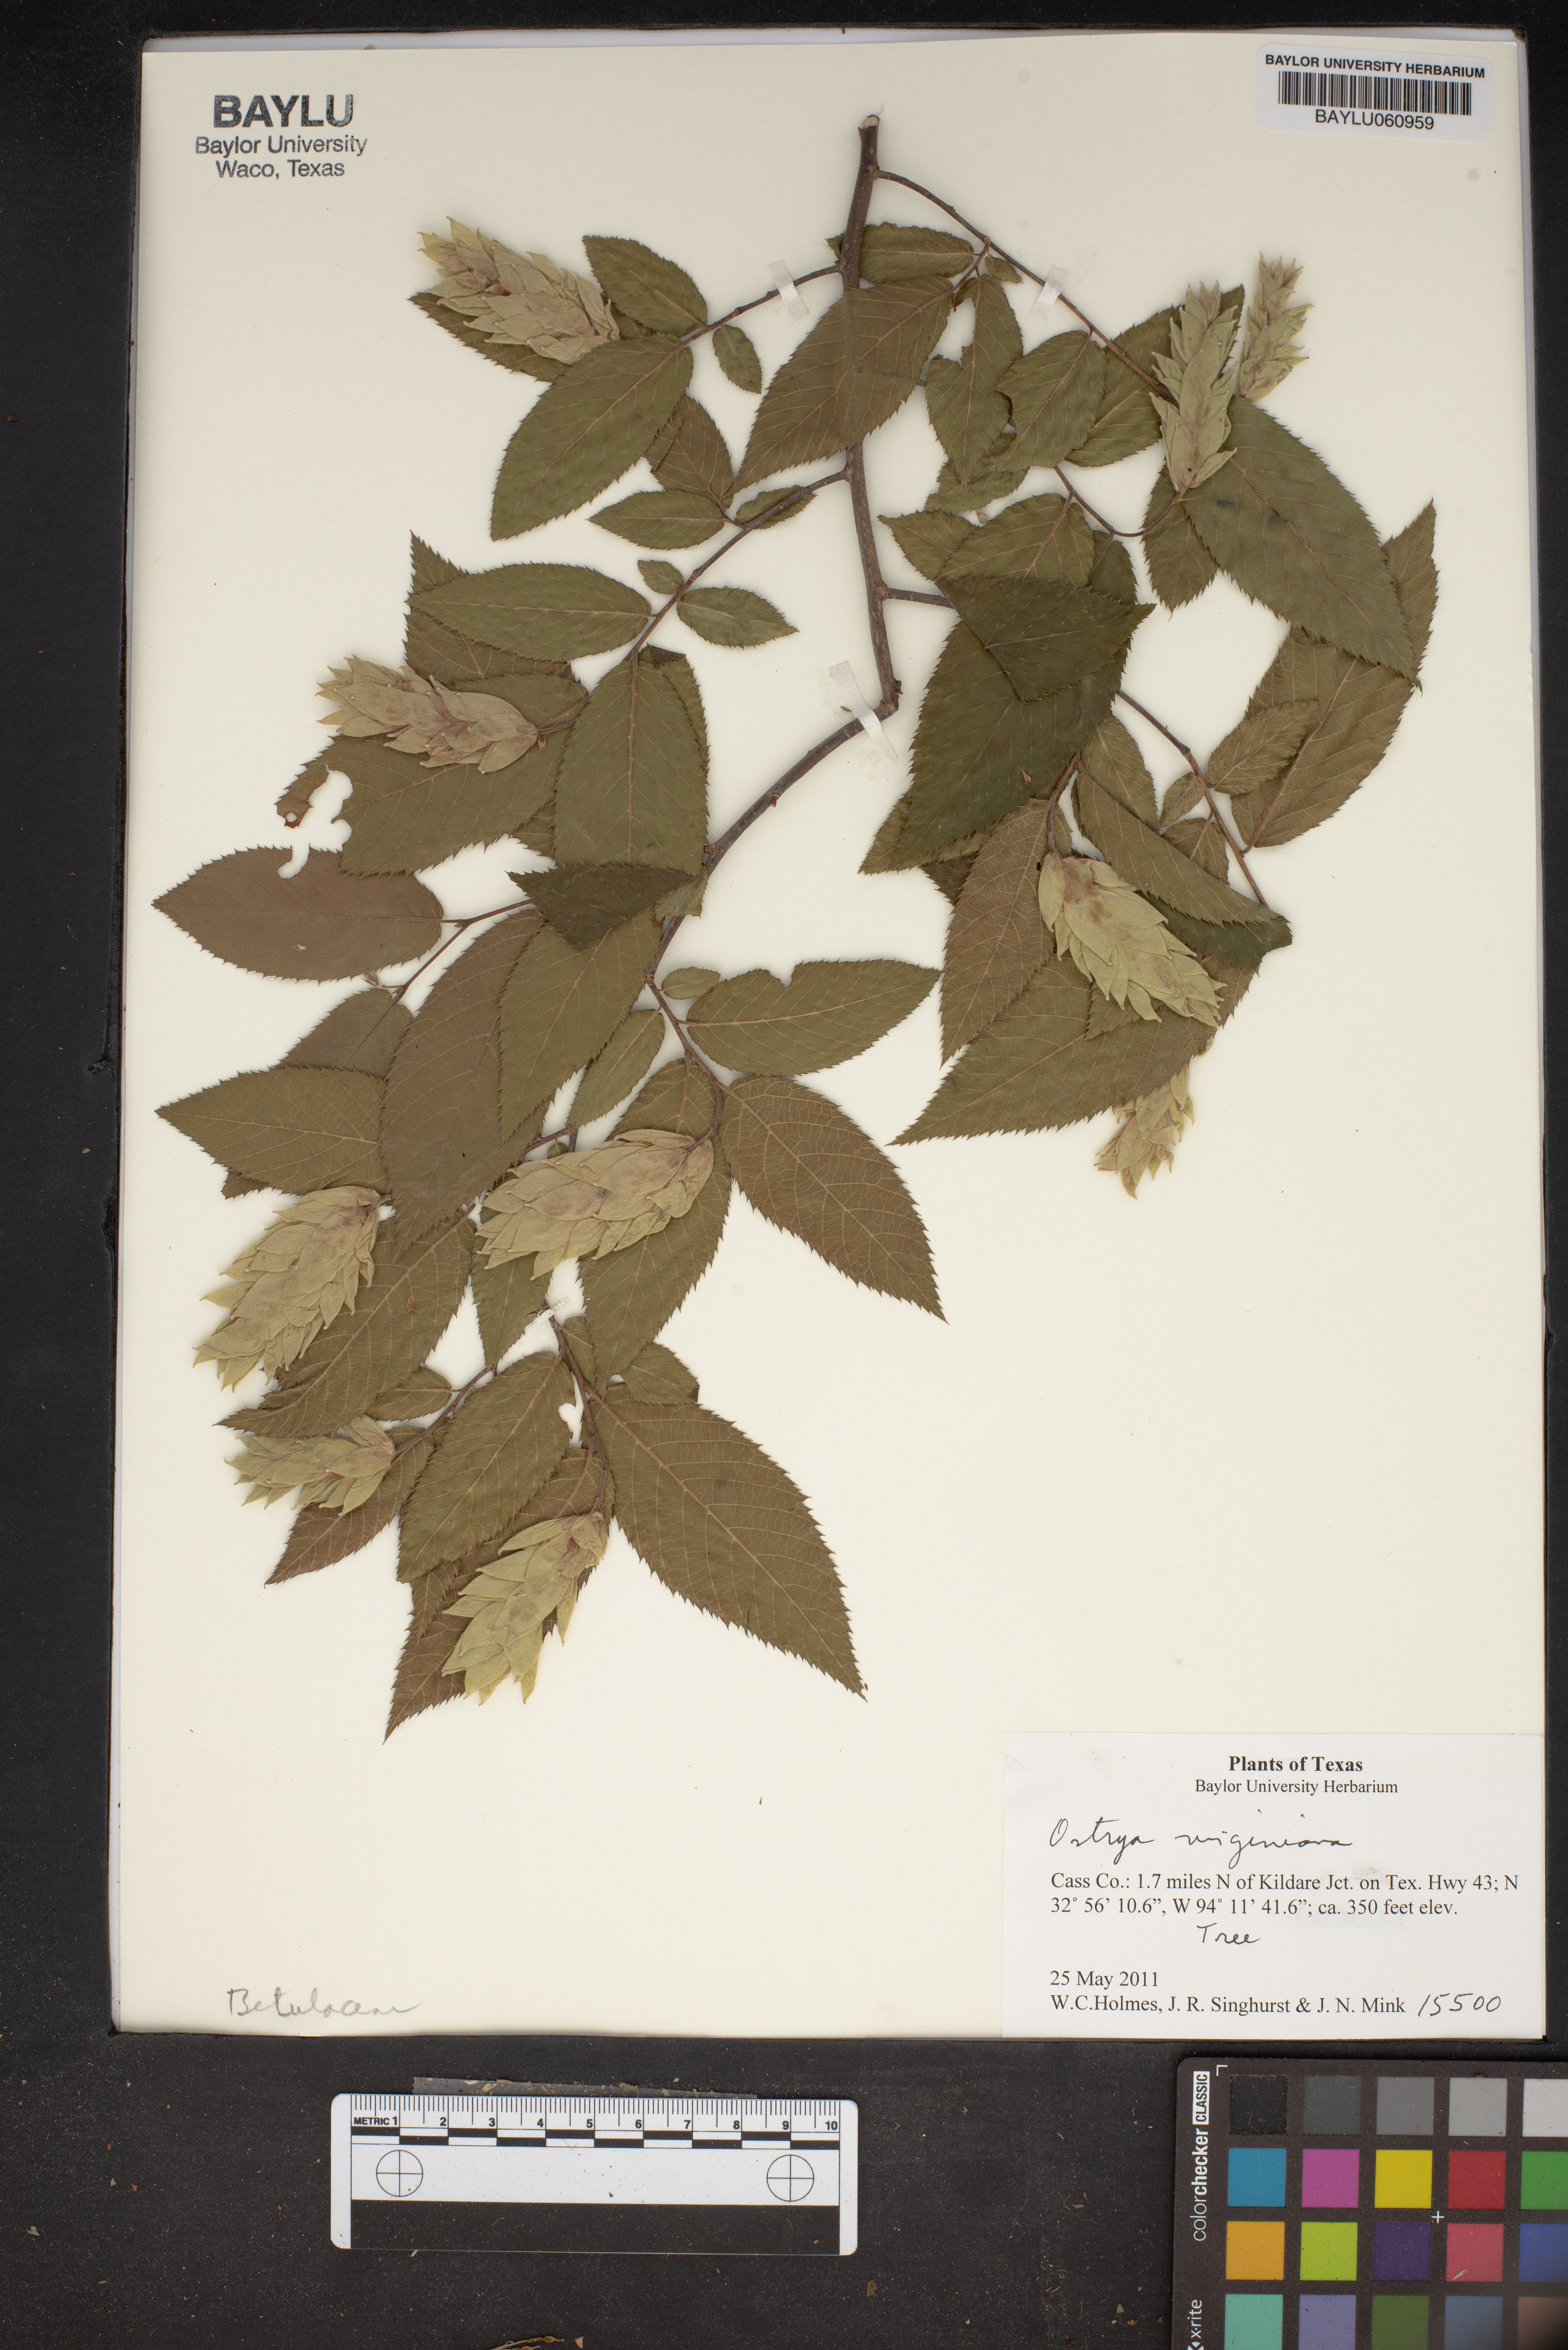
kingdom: Plantae
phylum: Tracheophyta
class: Magnoliopsida
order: Fagales
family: Betulaceae
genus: Ostrya
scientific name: Ostrya virginiana
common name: Ironwood
